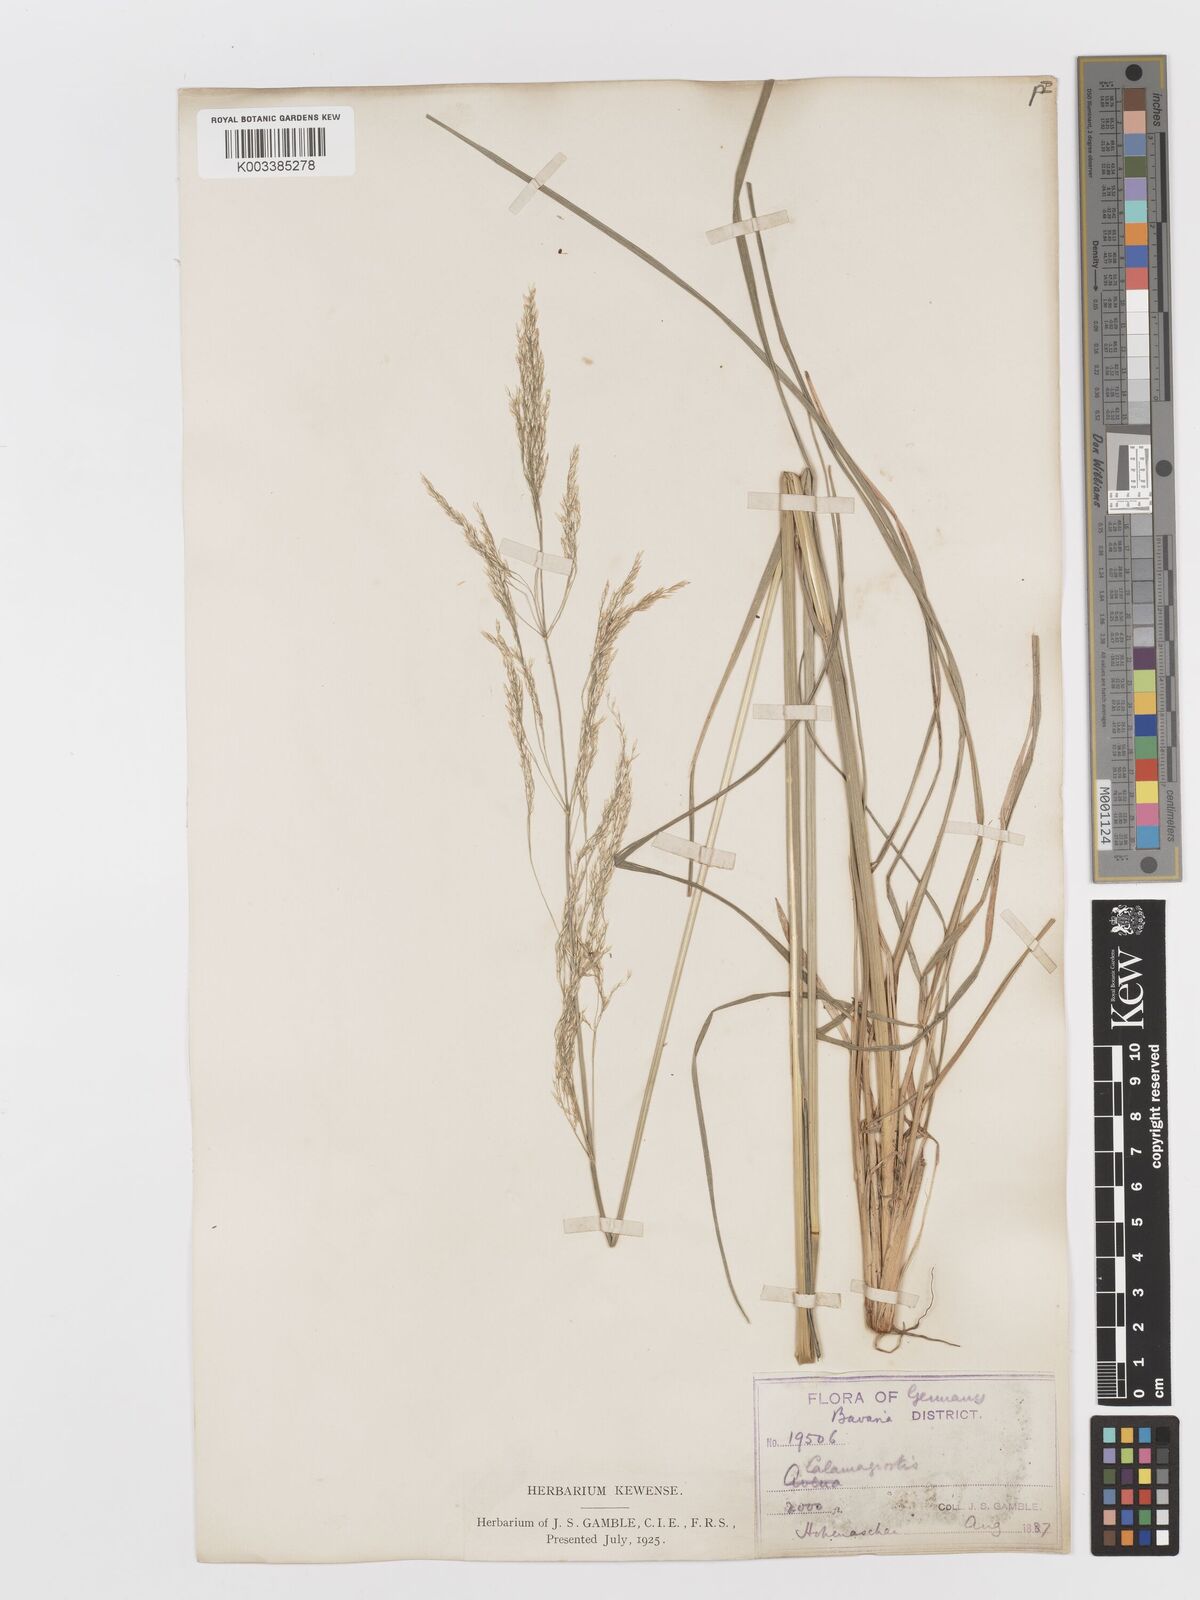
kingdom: Plantae
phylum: Tracheophyta
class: Liliopsida
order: Poales
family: Poaceae
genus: Deschampsia
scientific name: Deschampsia cespitosa
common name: Tufted hair-grass
